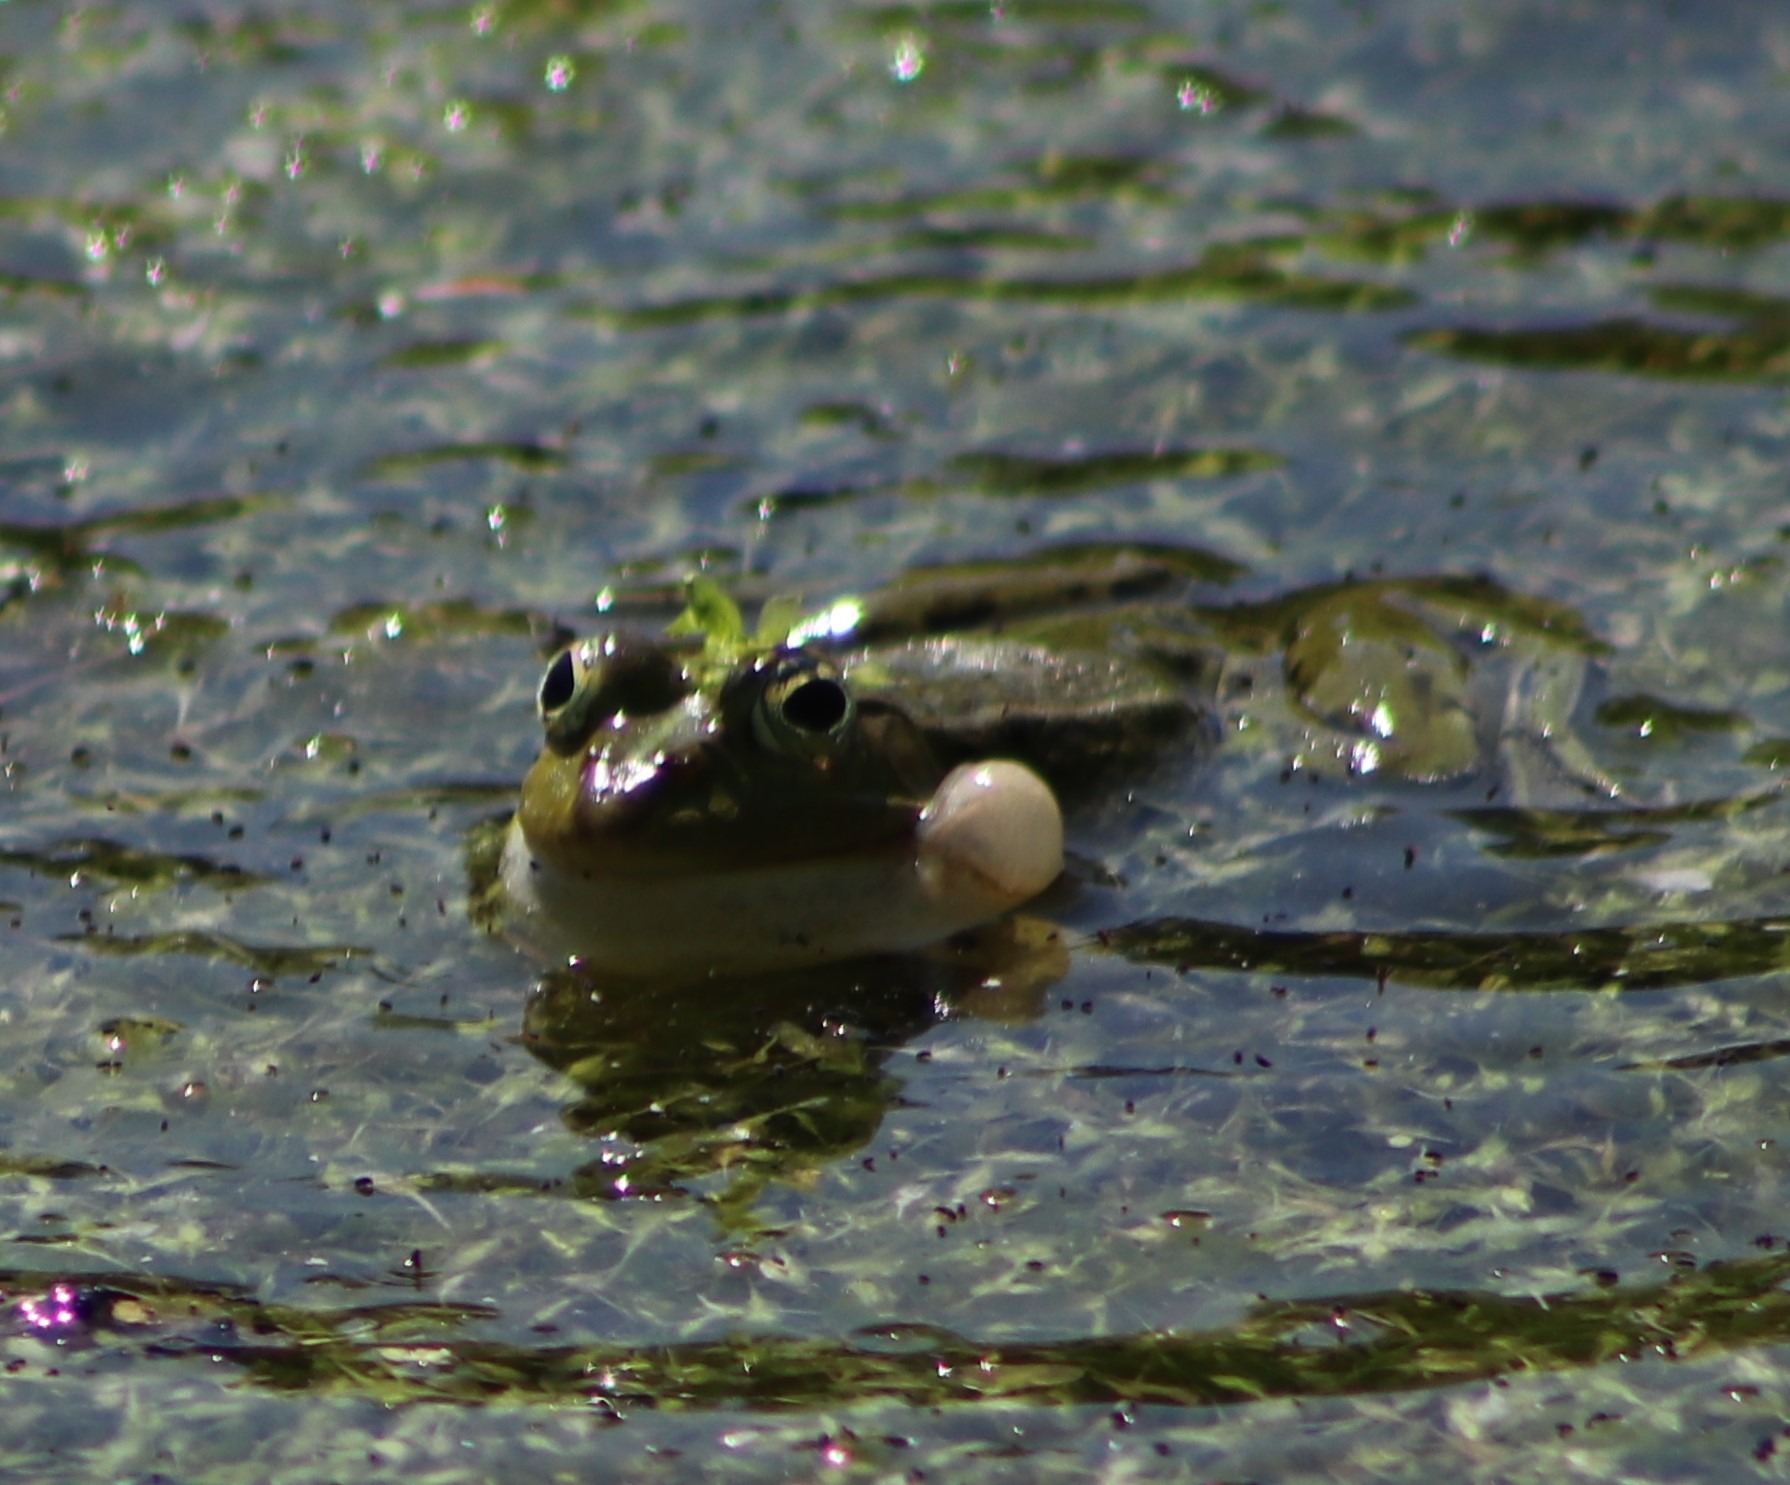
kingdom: Animalia
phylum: Chordata
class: Amphibia
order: Anura
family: Ranidae
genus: Pelophylax
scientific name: Pelophylax lessonae
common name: Grøn frø
